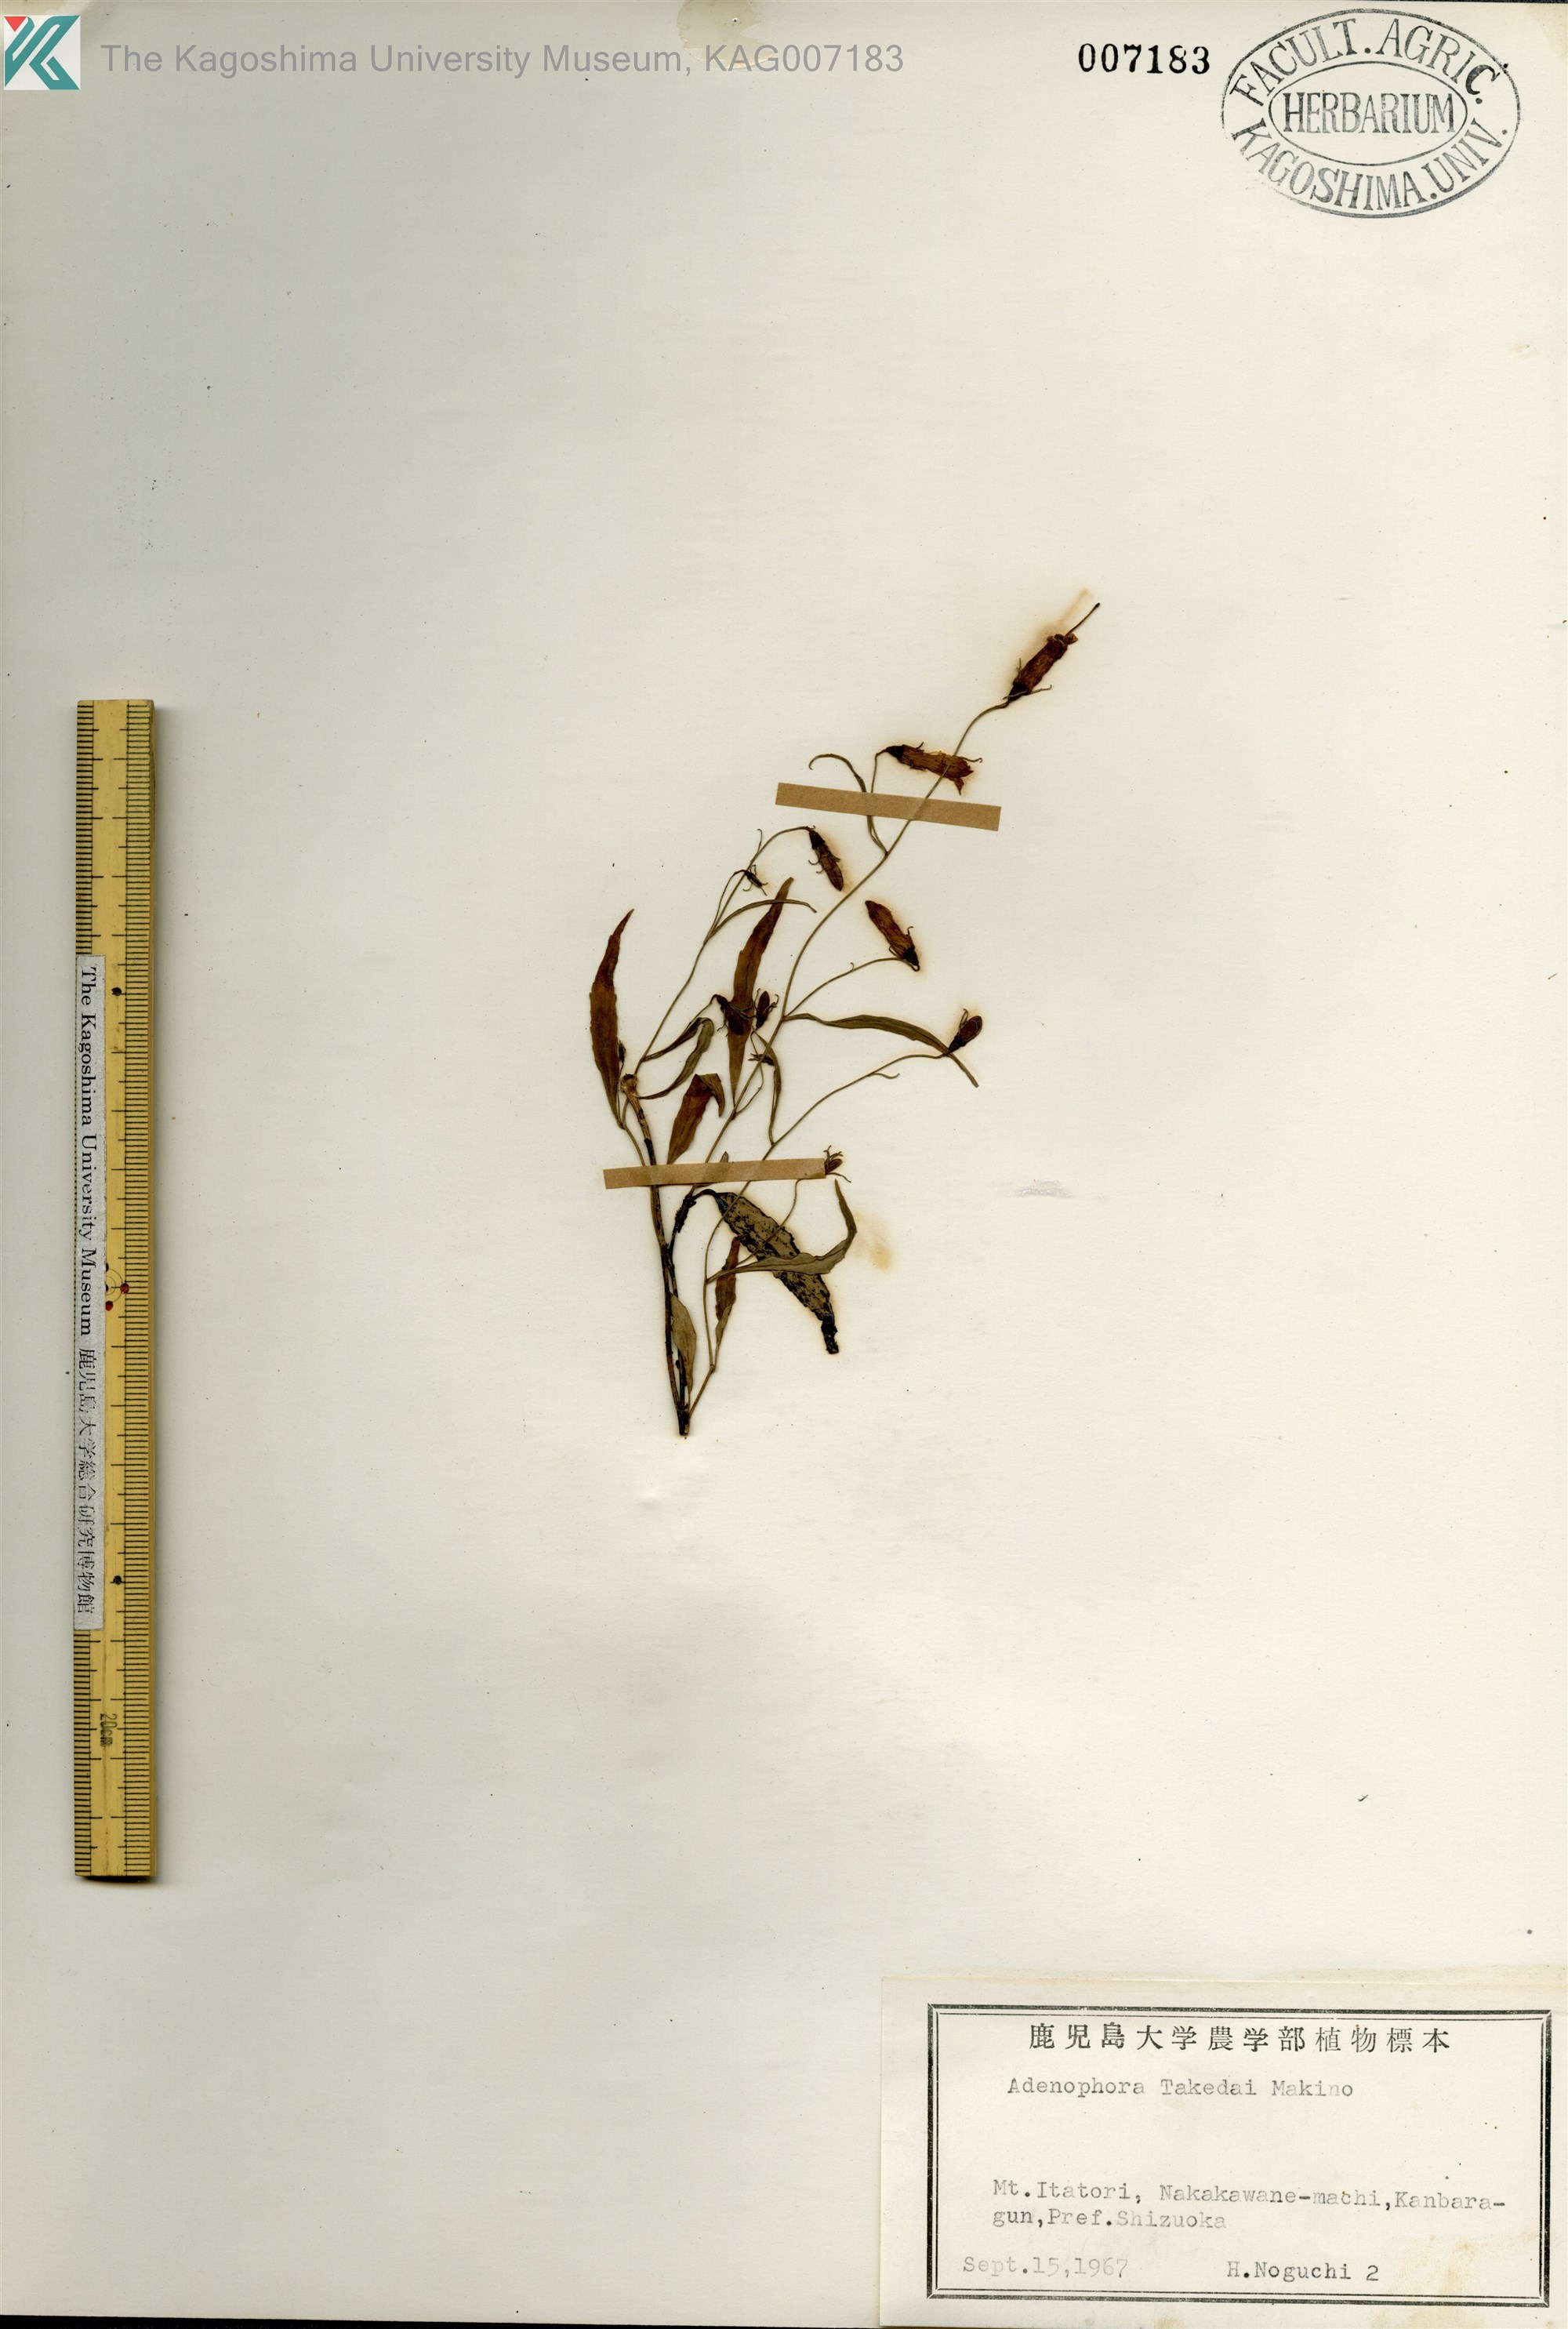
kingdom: Plantae
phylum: Tracheophyta
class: Magnoliopsida
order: Asterales
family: Campanulaceae
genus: Adenophora
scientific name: Adenophora takedae
